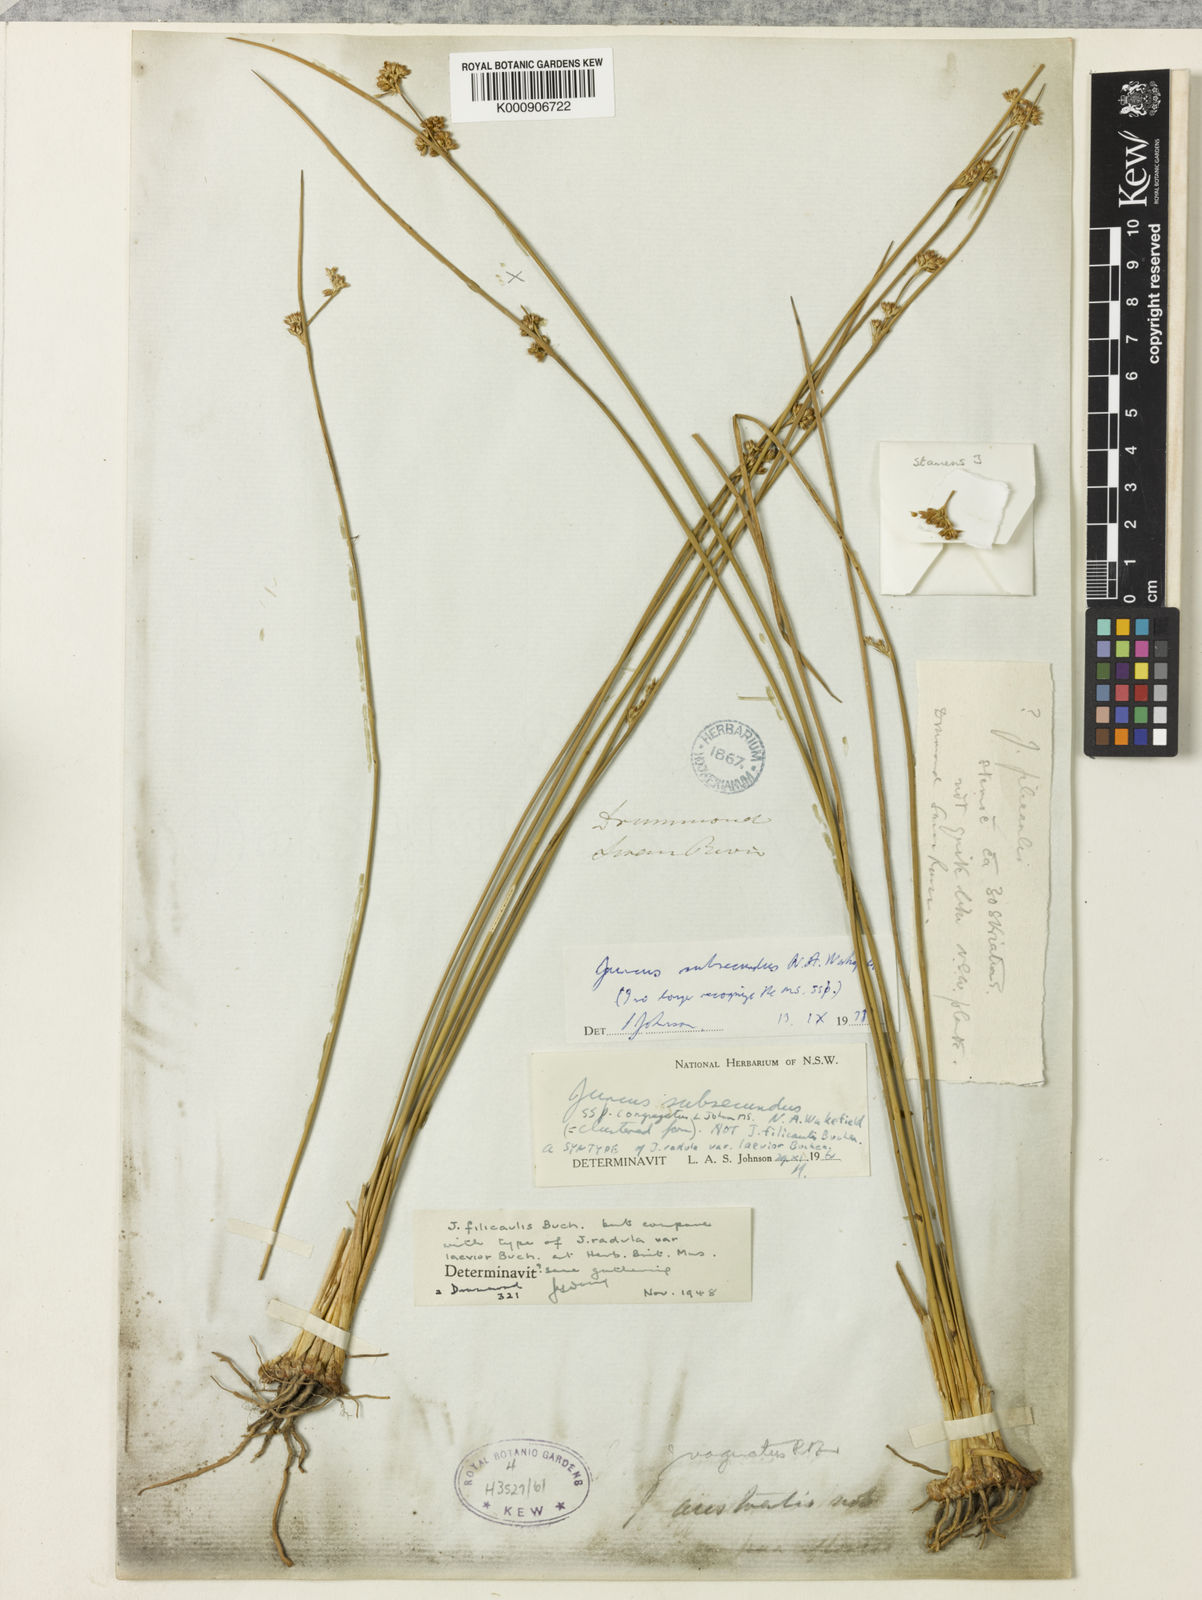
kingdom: Plantae
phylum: Tracheophyta
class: Liliopsida
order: Poales
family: Juncaceae
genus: Juncus
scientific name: Juncus subsecundus
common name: Fingered rush
